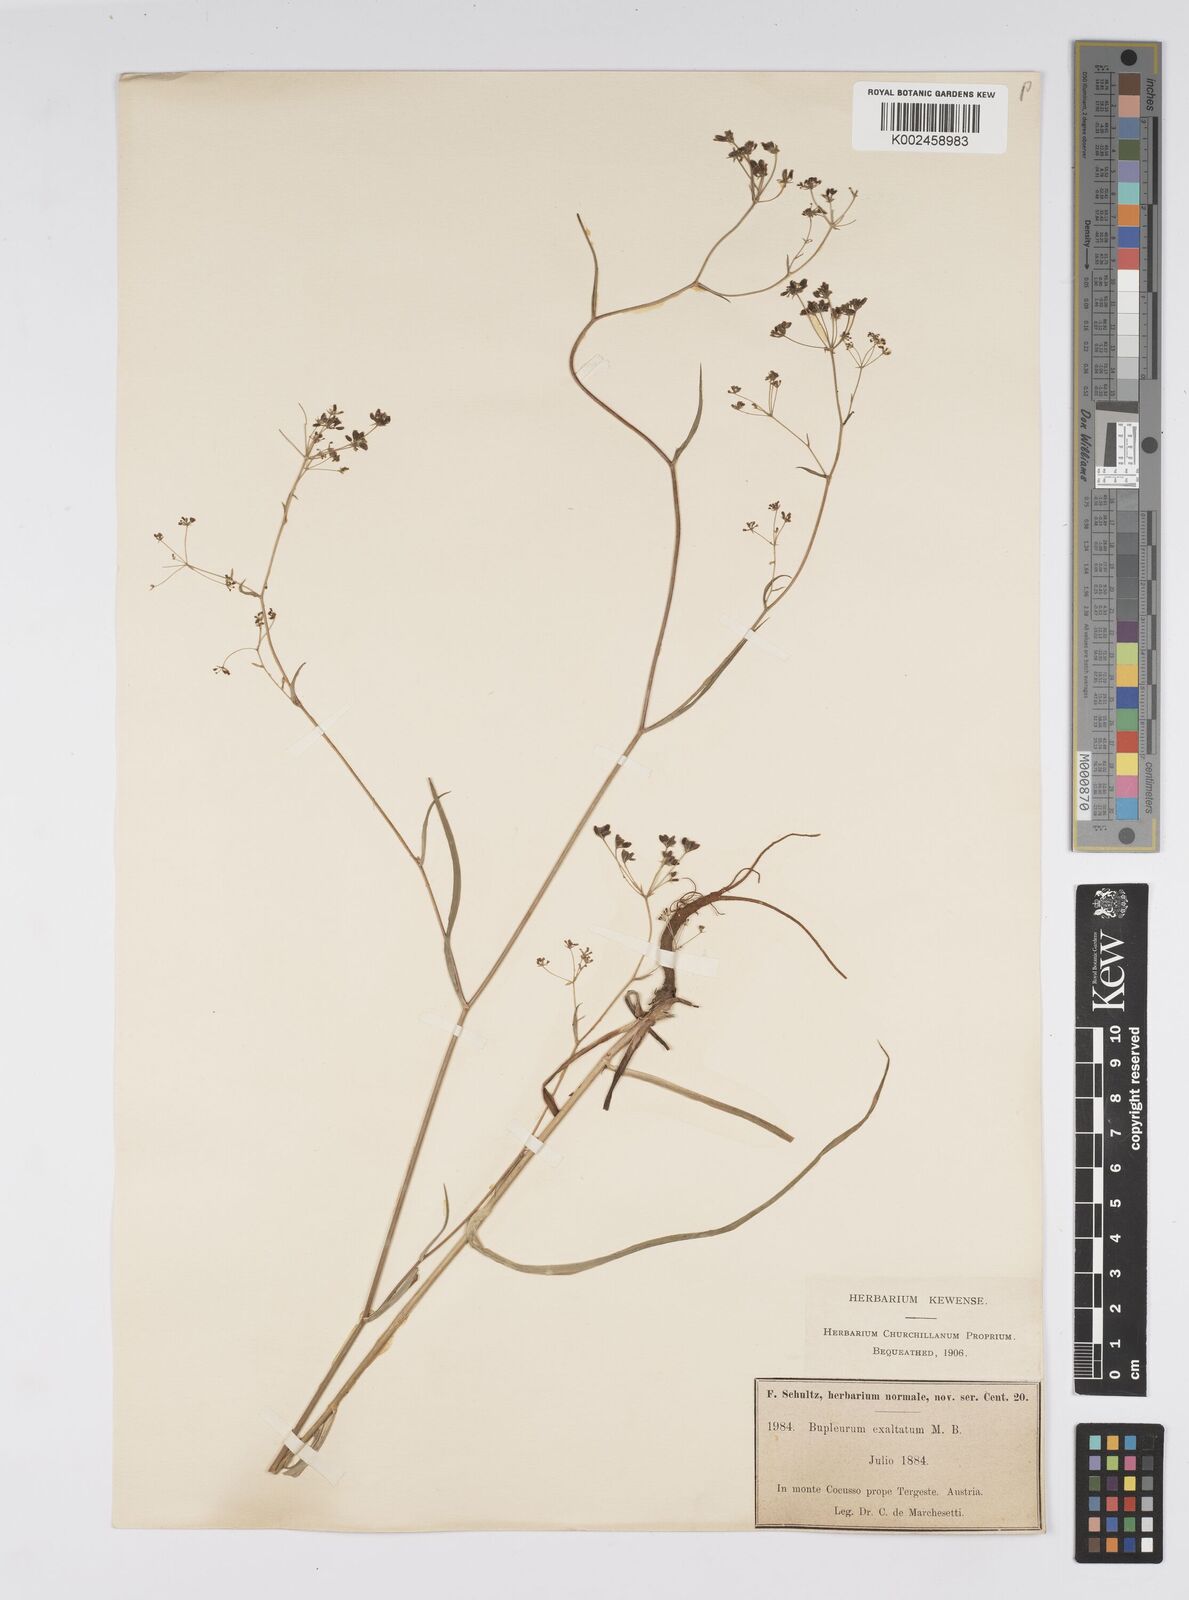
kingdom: Plantae
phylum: Tracheophyta
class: Magnoliopsida
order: Apiales
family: Apiaceae
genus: Bupleurum
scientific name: Bupleurum falcatum
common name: Sickle-leaved hare's-ear
